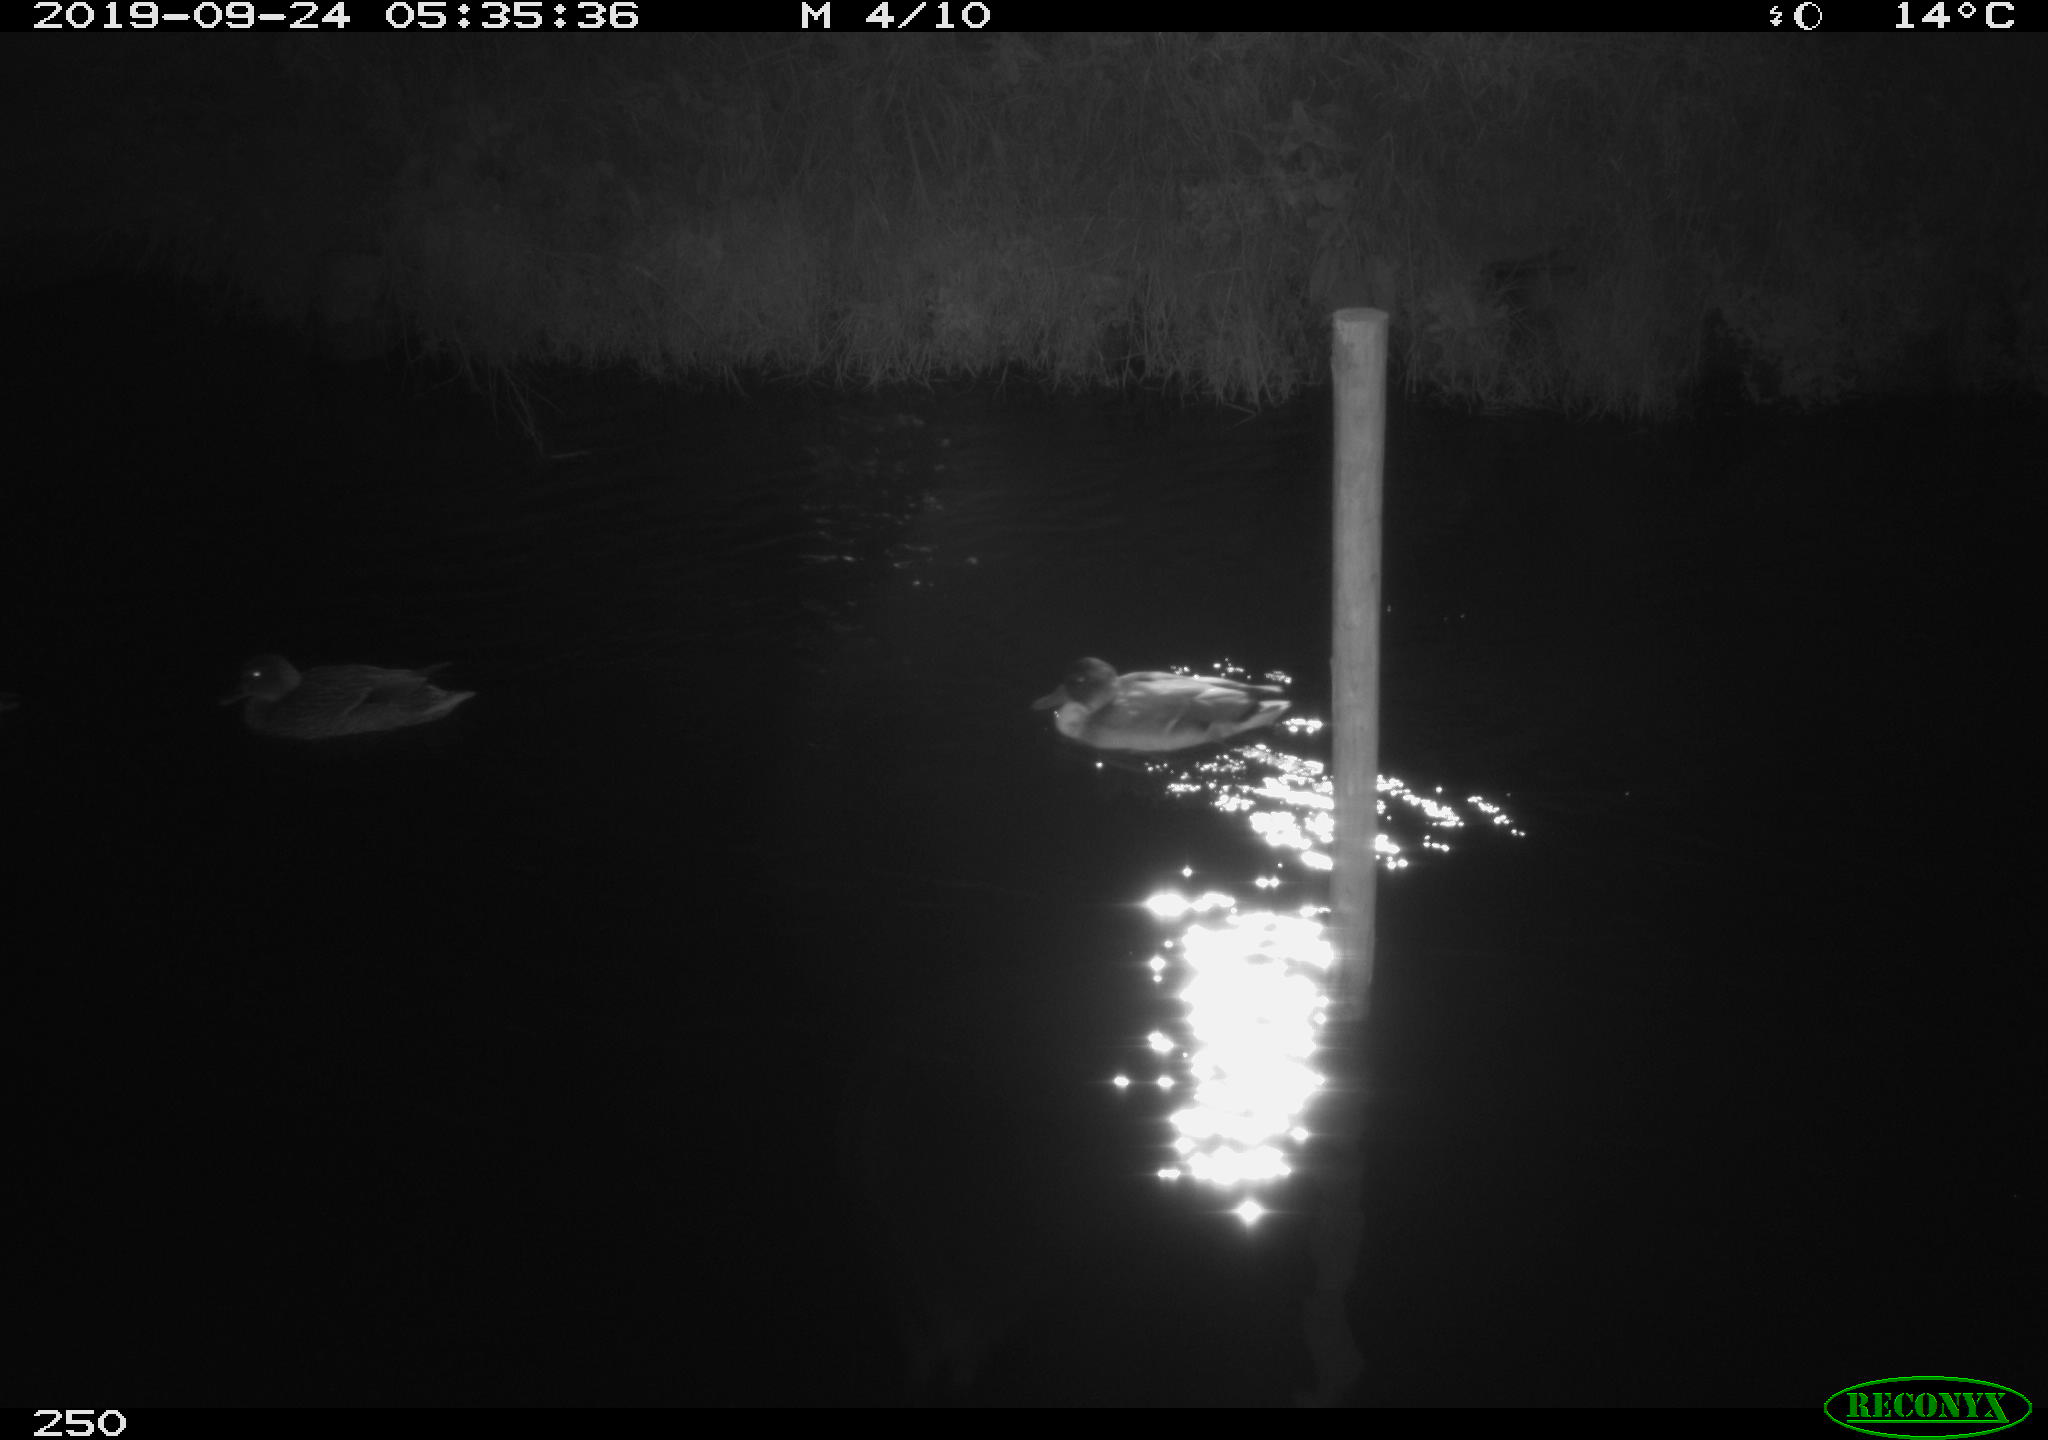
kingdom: Animalia
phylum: Chordata
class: Aves
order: Anseriformes
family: Anatidae
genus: Anas
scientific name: Anas platyrhynchos
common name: Mallard
